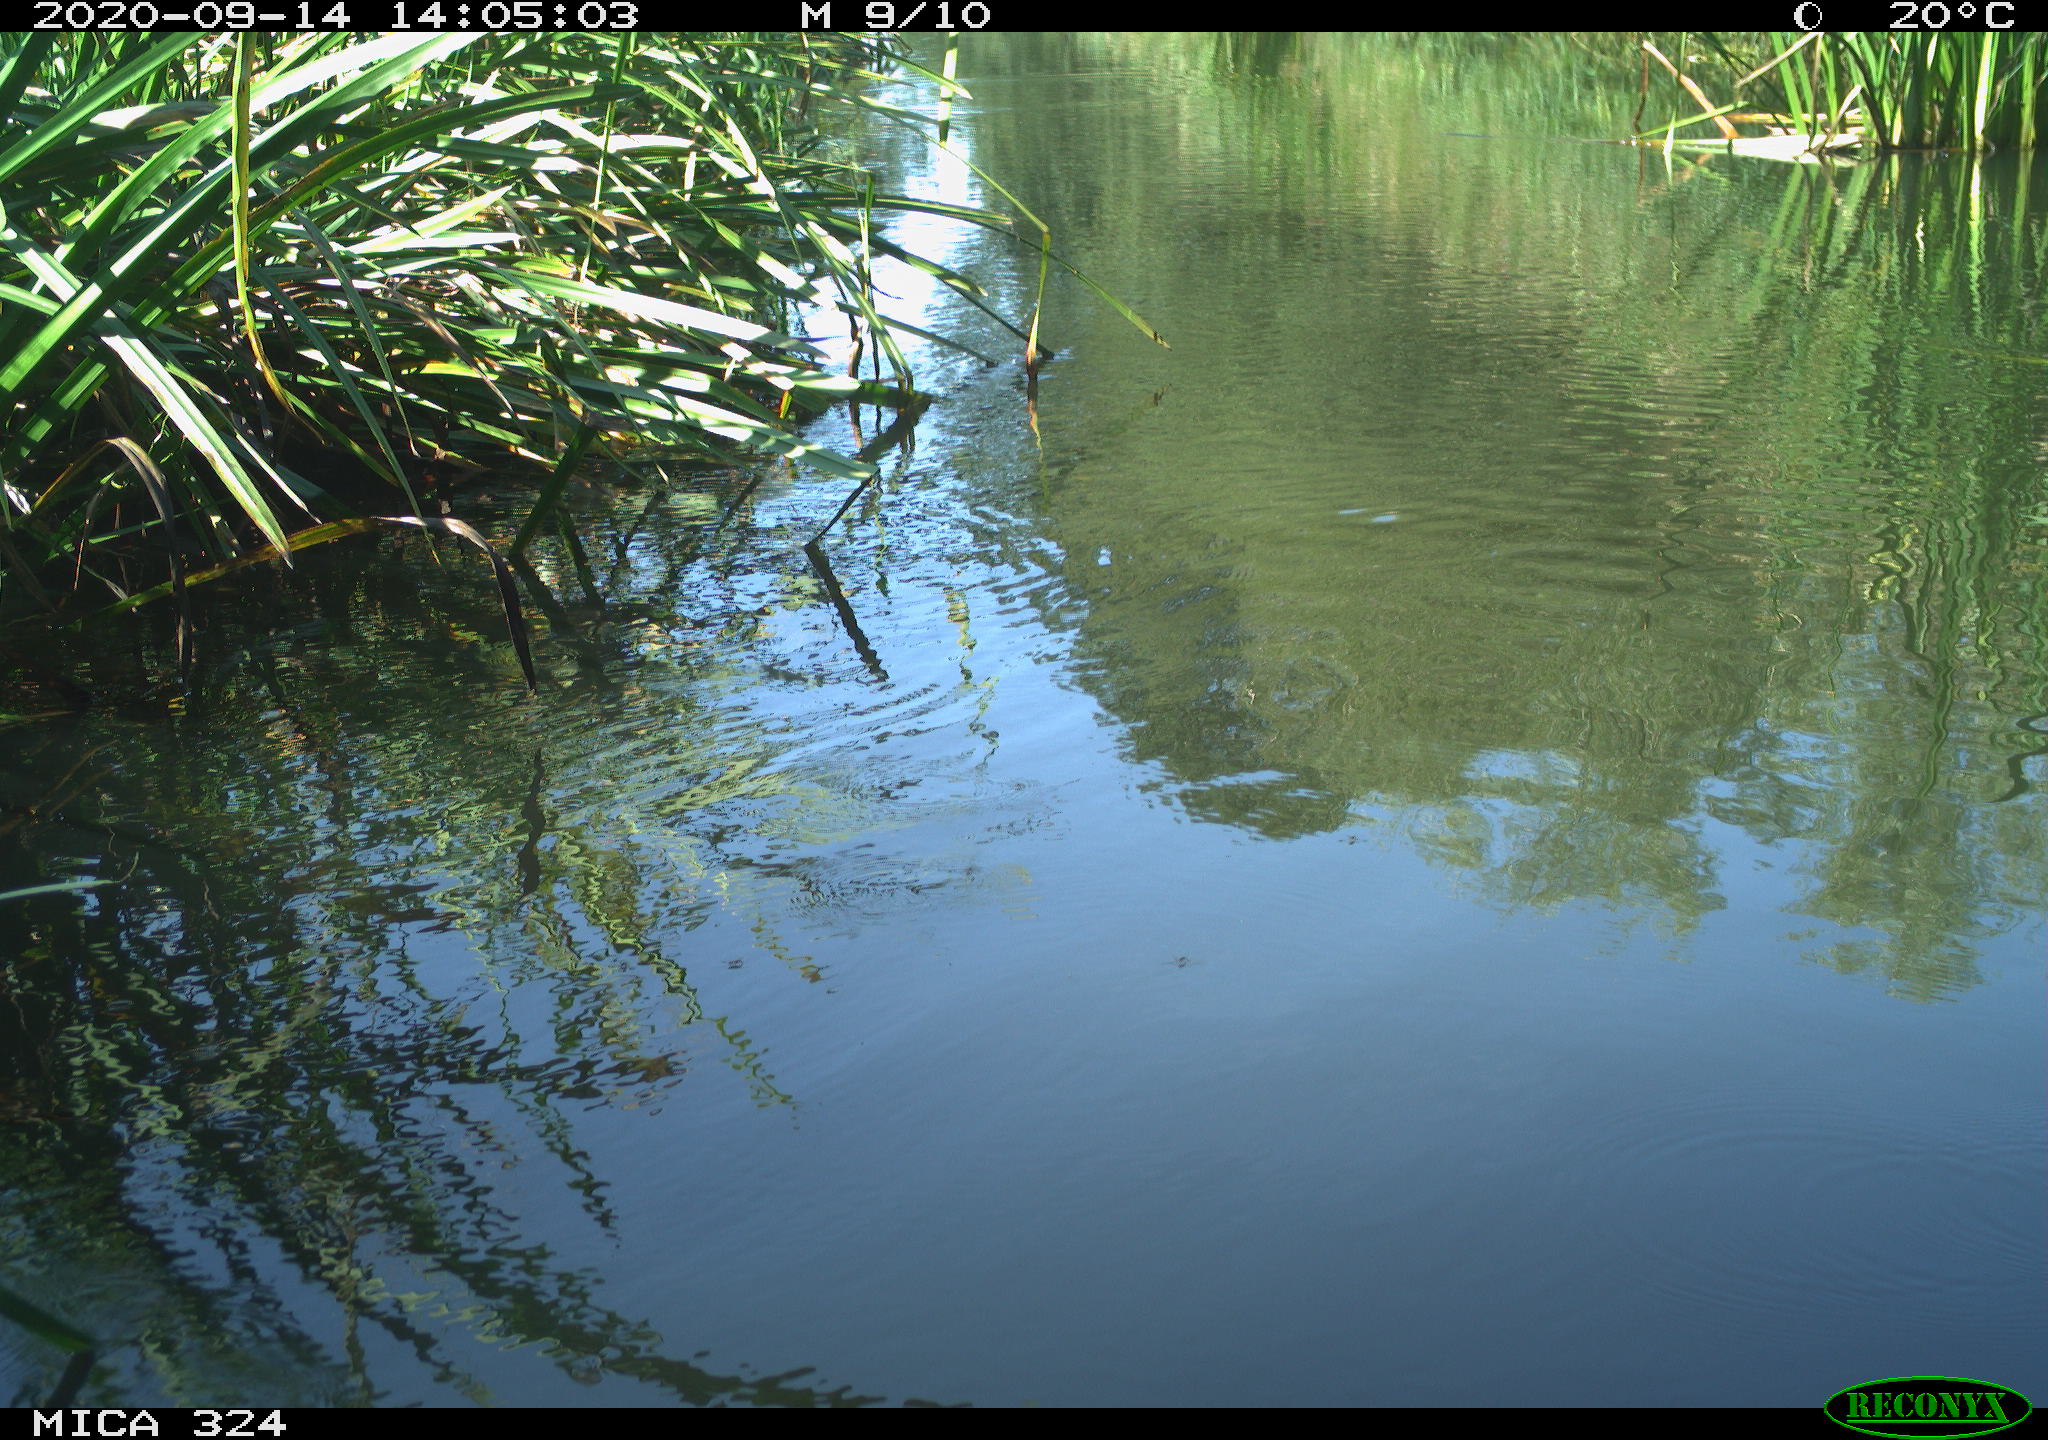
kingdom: Animalia
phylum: Chordata
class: Aves
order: Gruiformes
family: Rallidae
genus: Gallinula
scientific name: Gallinula chloropus
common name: Common moorhen
